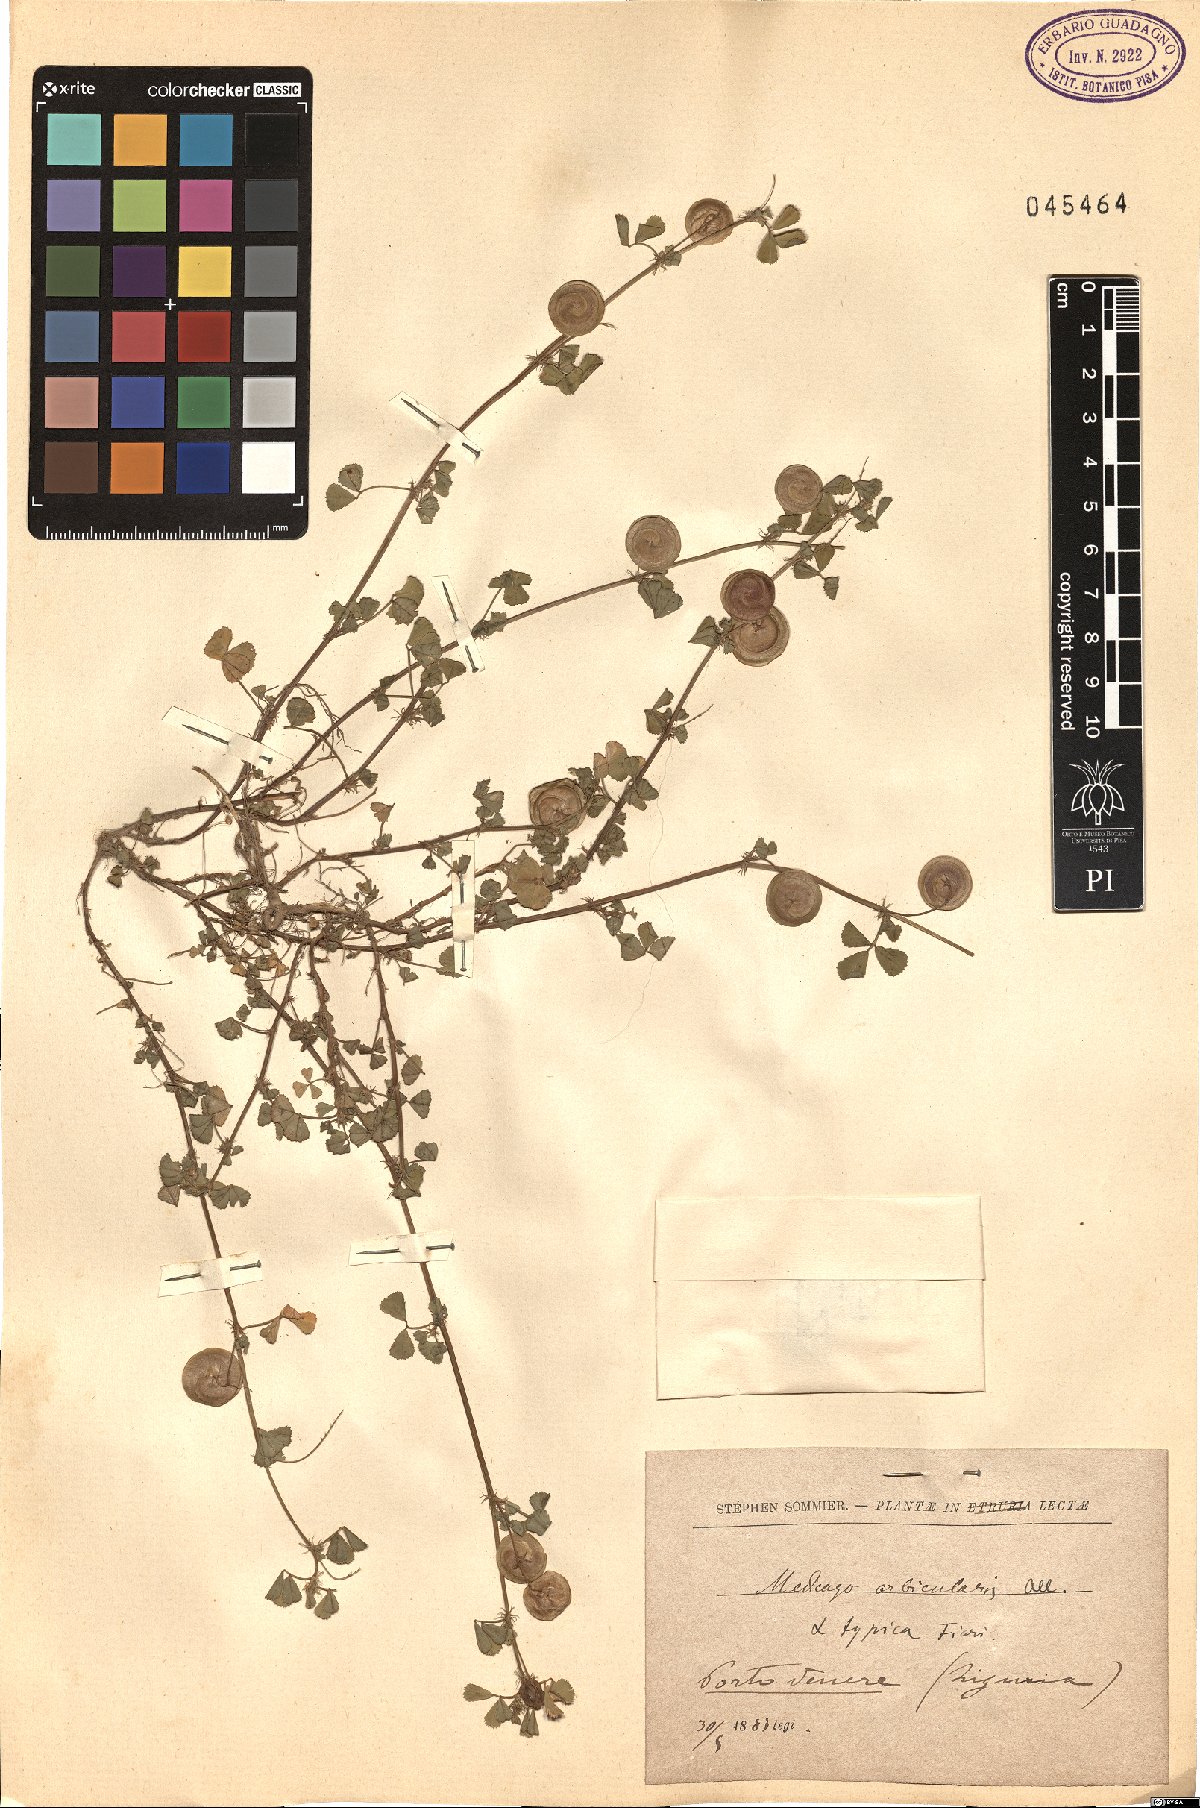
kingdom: Plantae
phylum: Tracheophyta
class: Magnoliopsida
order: Fabales
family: Fabaceae
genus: Medicago
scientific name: Medicago orbicularis
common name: Button medick
